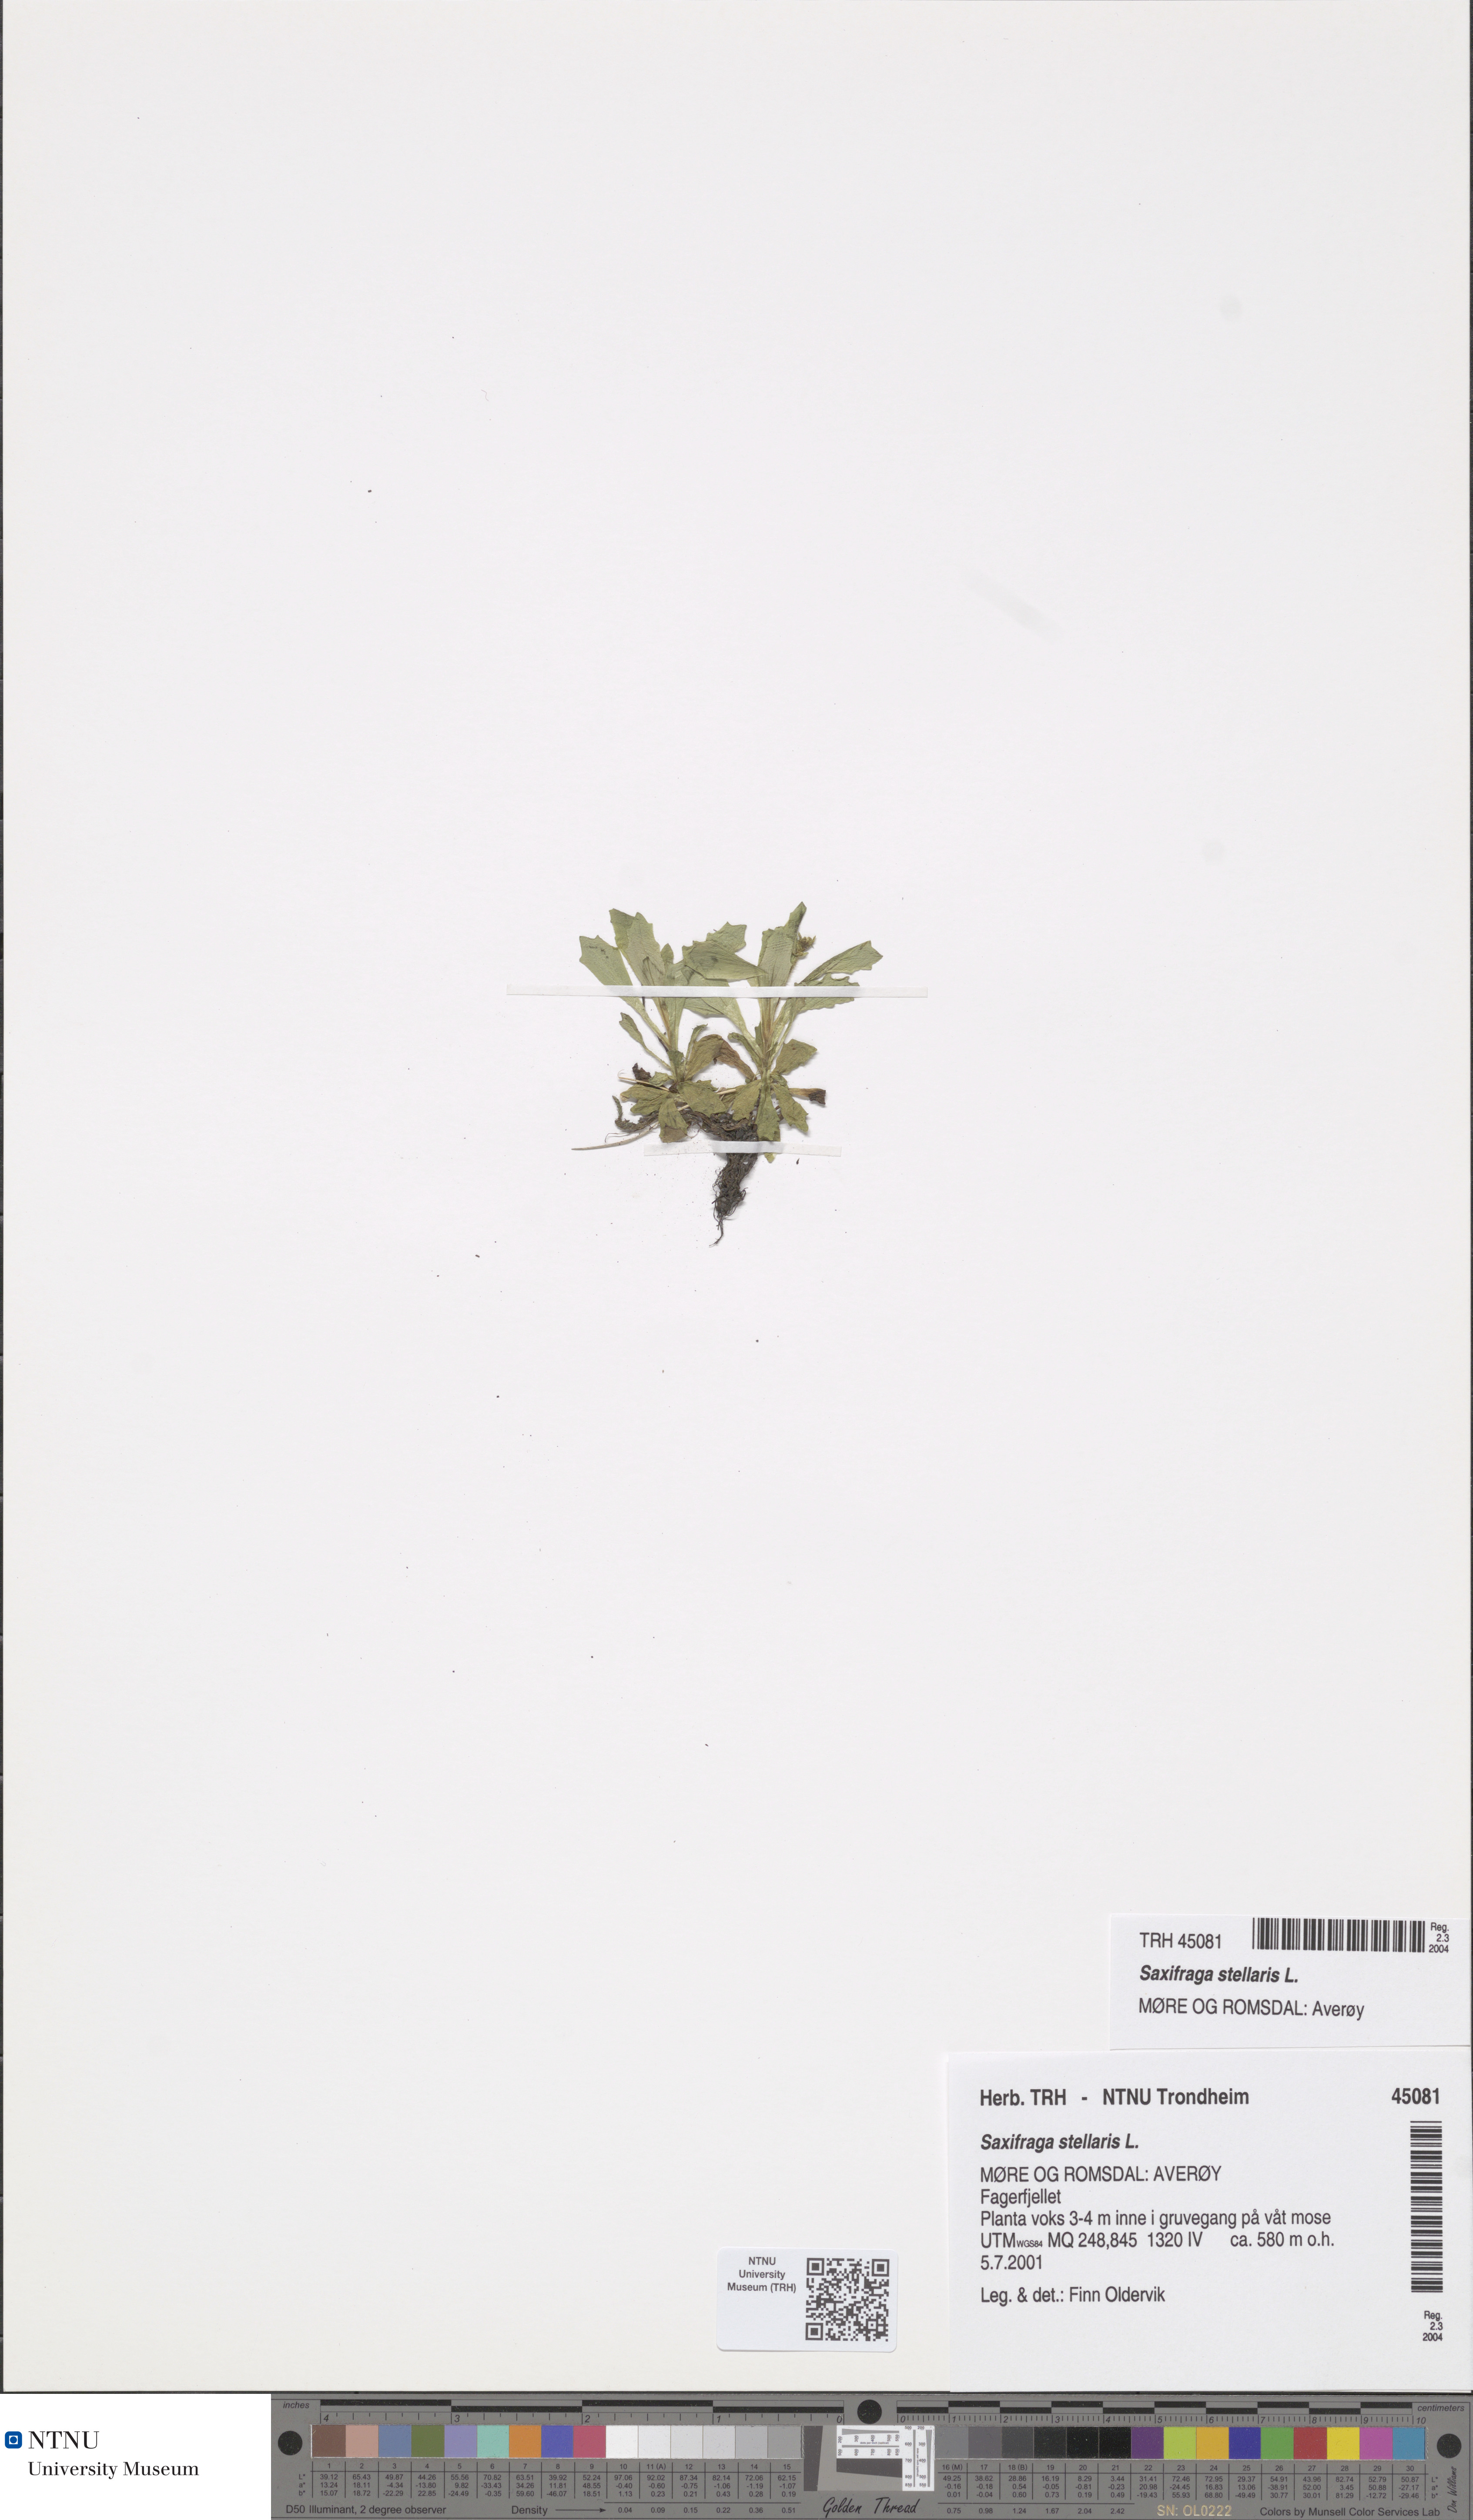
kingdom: Plantae
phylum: Tracheophyta
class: Magnoliopsida
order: Saxifragales
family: Saxifragaceae
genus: Micranthes
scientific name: Micranthes stellaris
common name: Starry saxifrage
